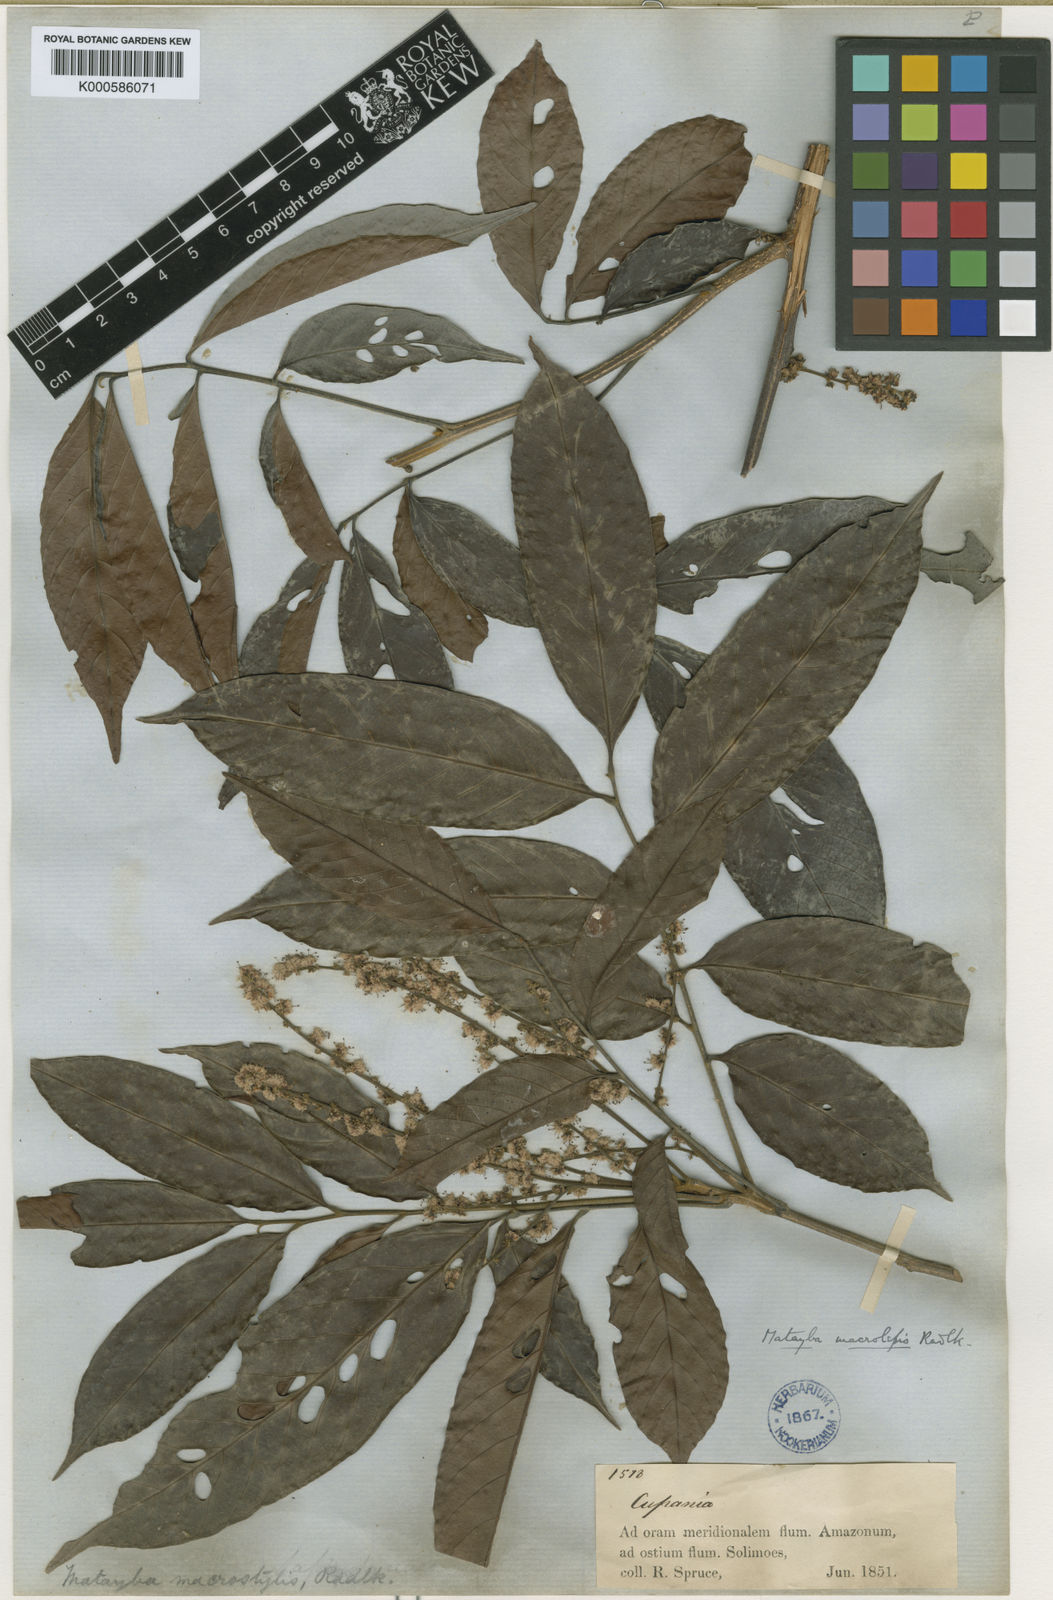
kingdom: Plantae
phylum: Tracheophyta
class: Magnoliopsida
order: Sapindales
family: Sapindaceae
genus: Cupania
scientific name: Cupania macrostylis
